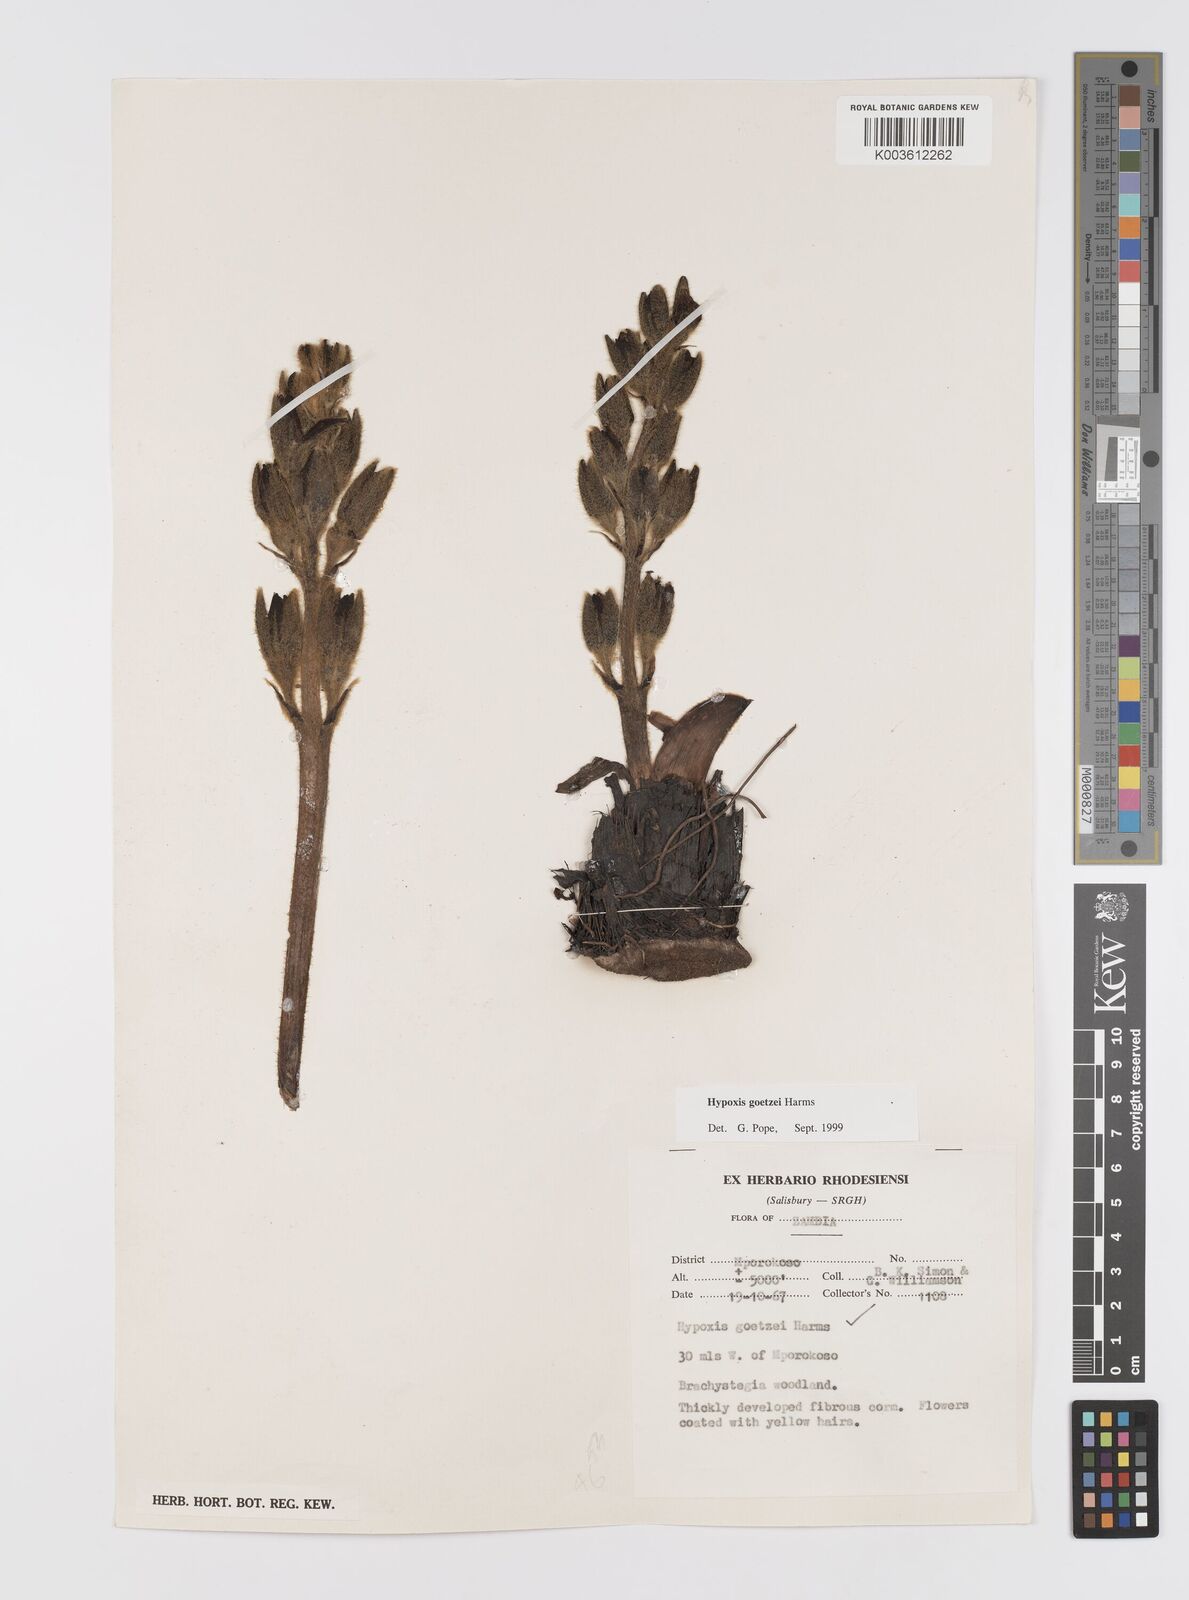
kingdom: Plantae
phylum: Tracheophyta
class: Liliopsida
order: Asparagales
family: Hypoxidaceae
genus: Hypoxis
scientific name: Hypoxis goetzei
